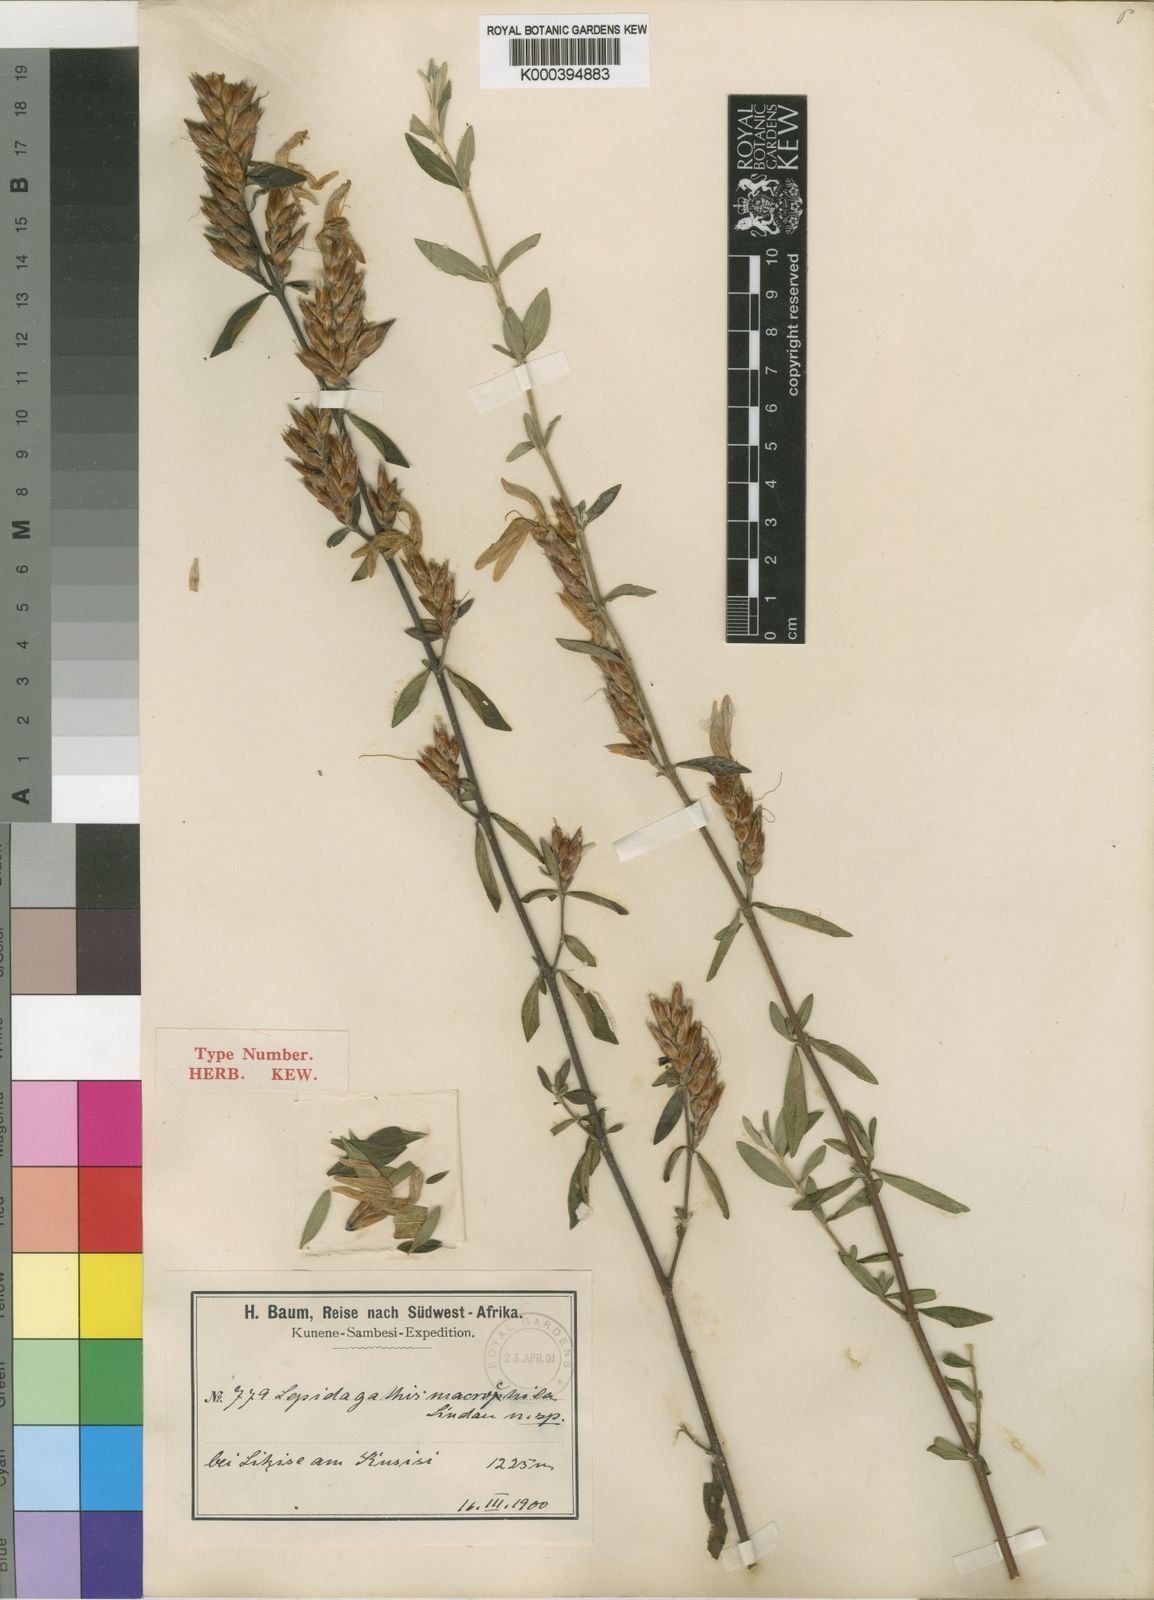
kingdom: Plantae
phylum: Tracheophyta
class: Magnoliopsida
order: Lamiales
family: Acanthaceae
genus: Lepidagathis
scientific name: Lepidagathis macrochila
